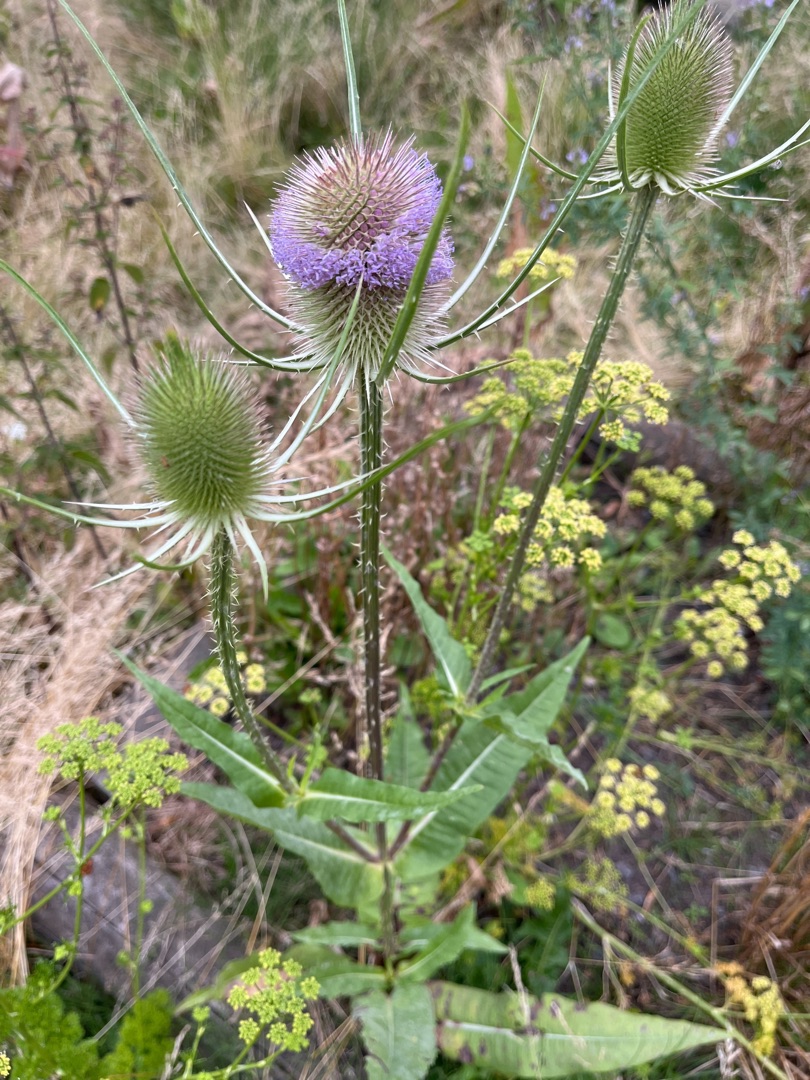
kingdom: Plantae
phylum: Tracheophyta
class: Magnoliopsida
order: Dipsacales
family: Caprifoliaceae
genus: Dipsacus
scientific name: Dipsacus fullonum
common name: Gærde-kartebolle
